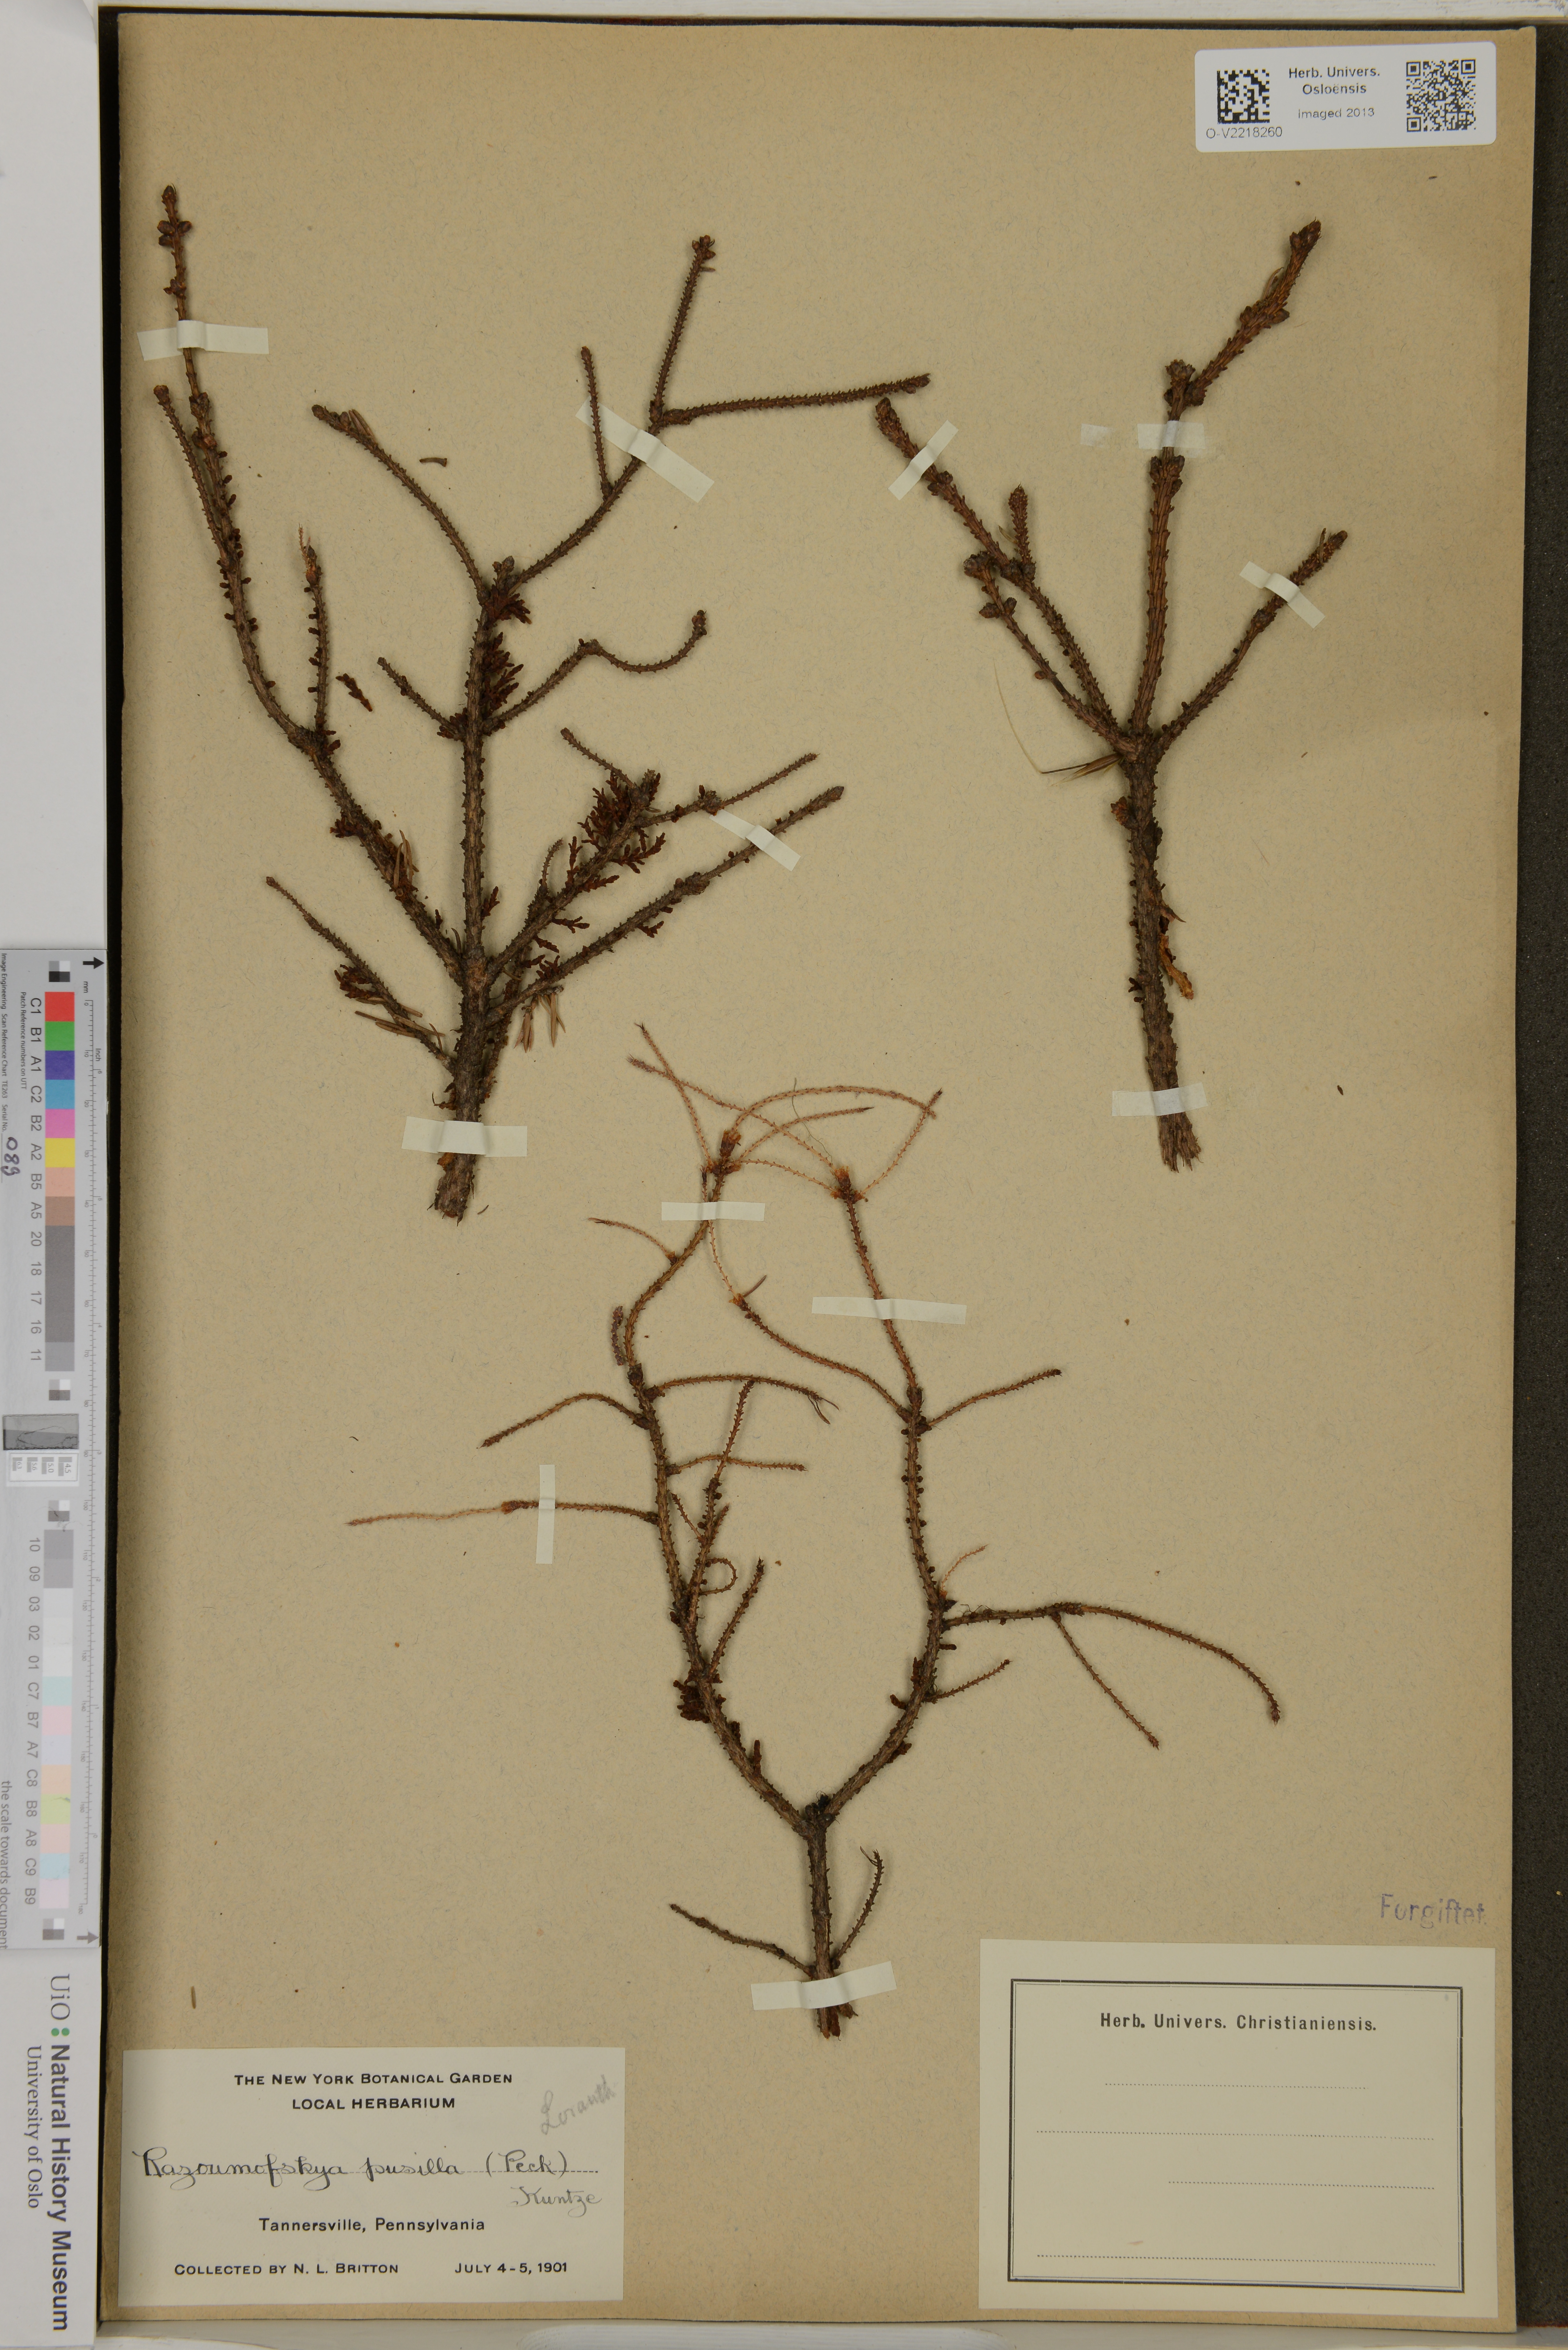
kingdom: Plantae
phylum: Tracheophyta
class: Magnoliopsida
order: Santalales
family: Viscaceae
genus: Arceuthobium
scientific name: Arceuthobium pusillum
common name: Dwarf-mistletoe
